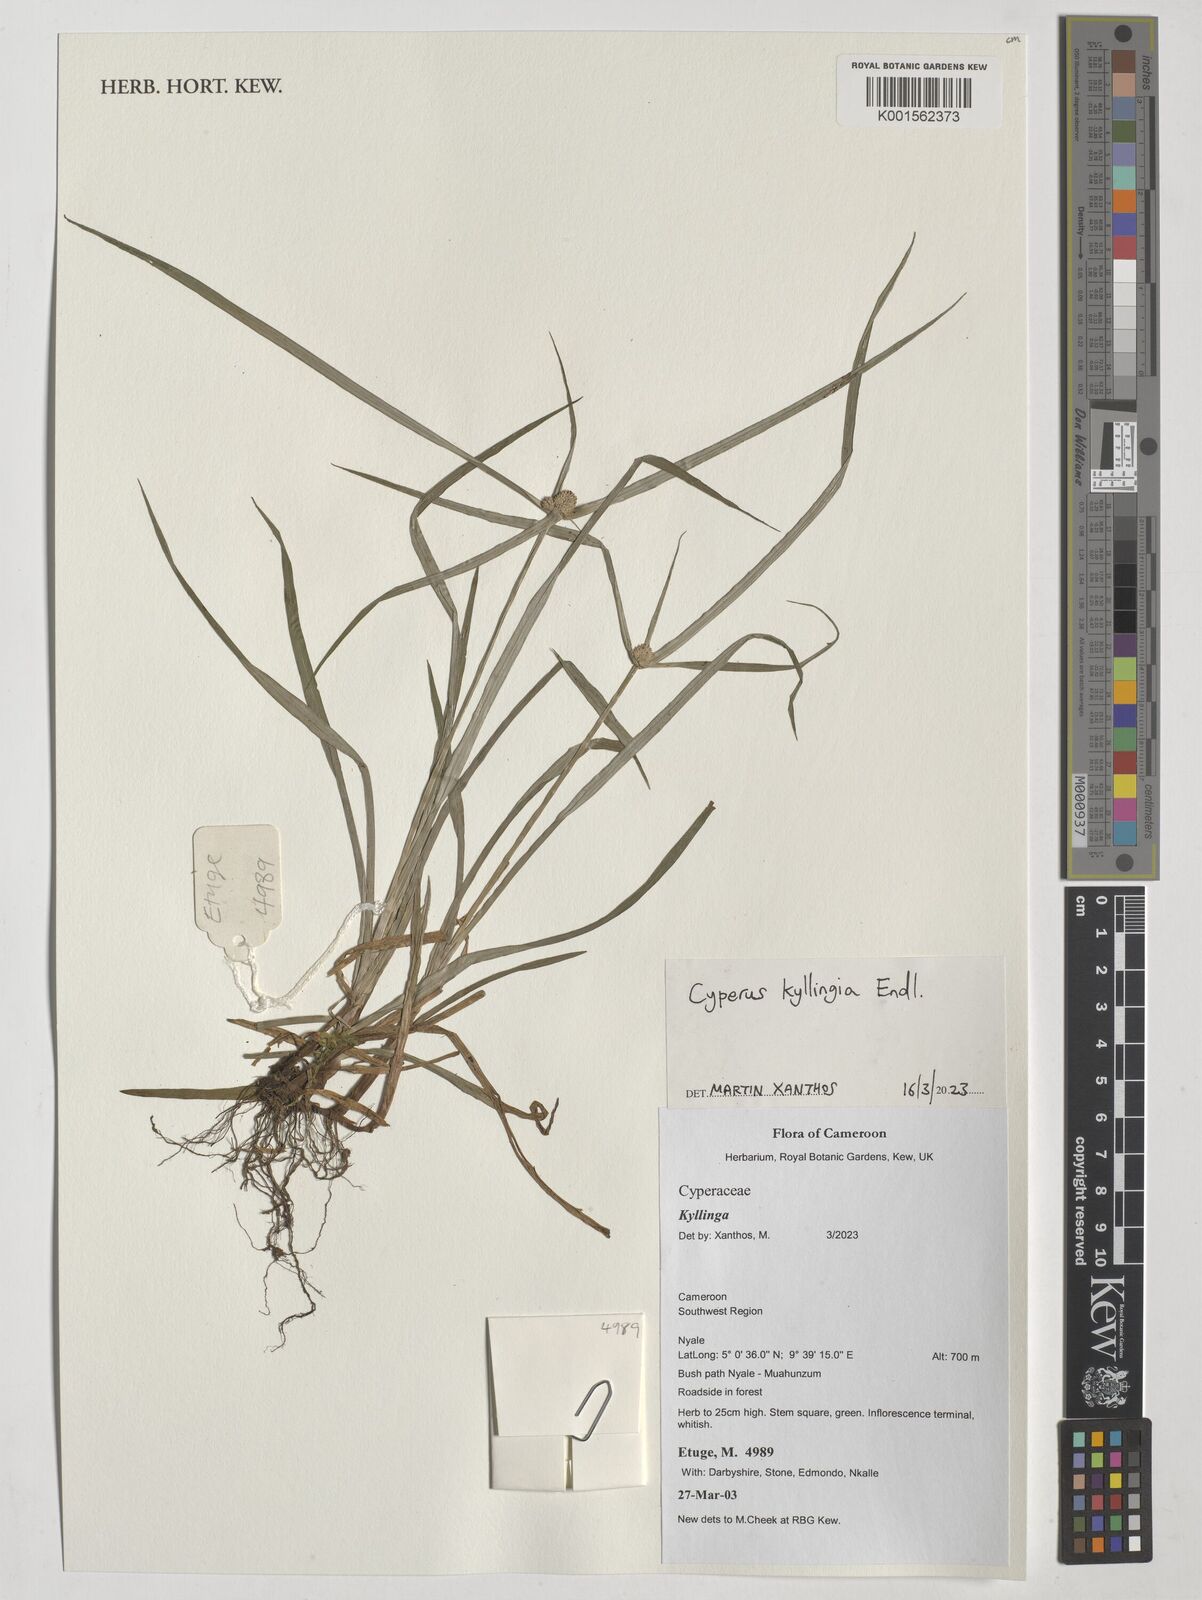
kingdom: Plantae
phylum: Tracheophyta
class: Liliopsida
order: Poales
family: Cyperaceae
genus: Rhynchospora
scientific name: Rhynchospora colorata
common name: Star sedge
